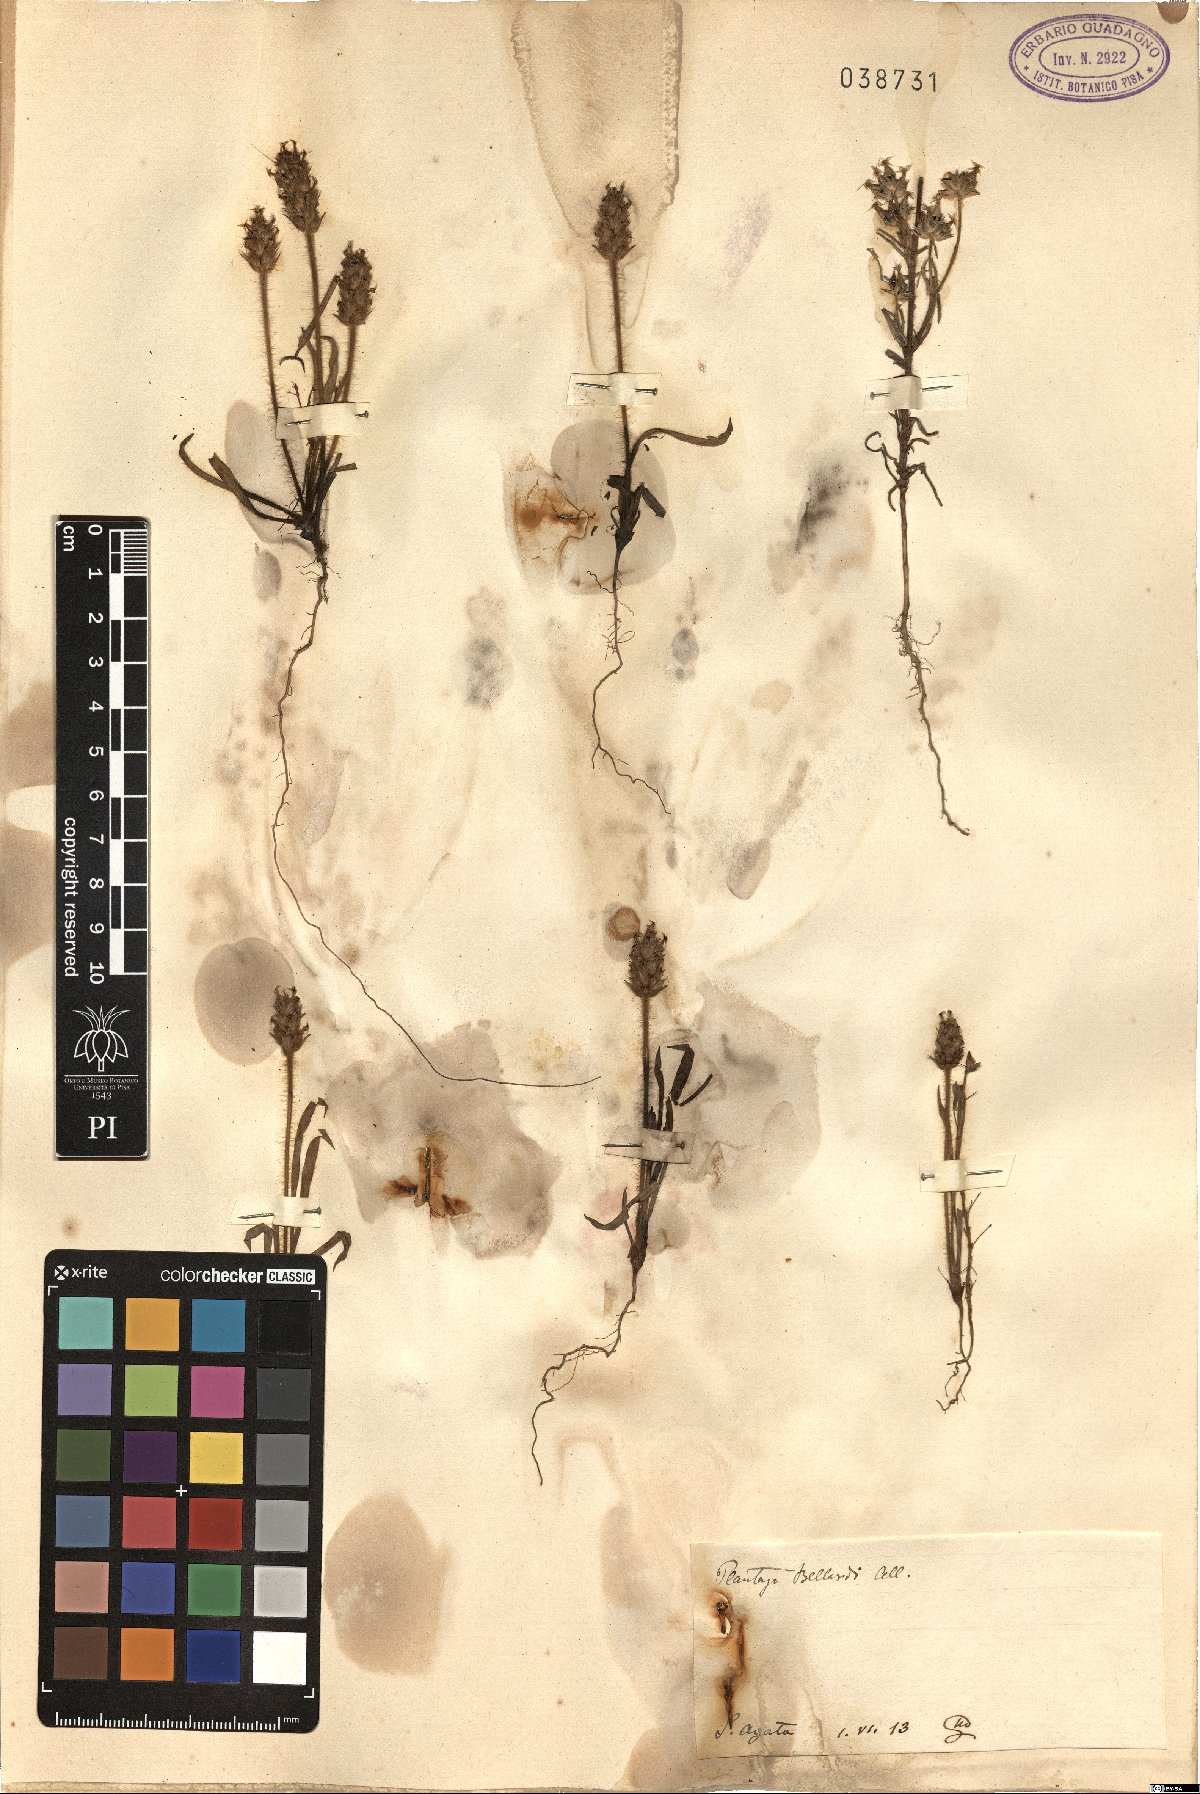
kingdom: Plantae
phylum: Tracheophyta
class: Magnoliopsida
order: Lamiales
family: Plantaginaceae
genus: Plantago
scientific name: Plantago bellardii
